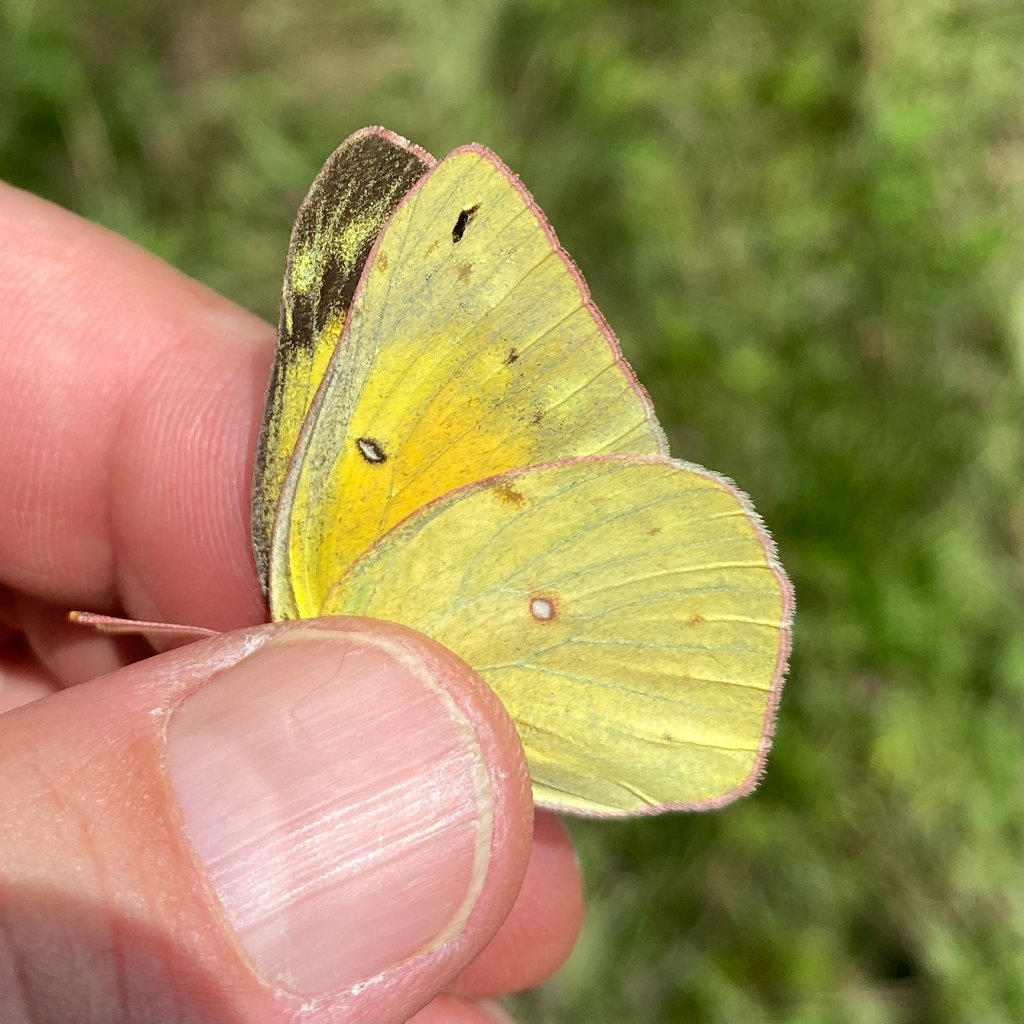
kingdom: Animalia
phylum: Arthropoda
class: Insecta
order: Lepidoptera
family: Pieridae
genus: Colias
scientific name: Colias eurytheme
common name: Orange Sulphur
